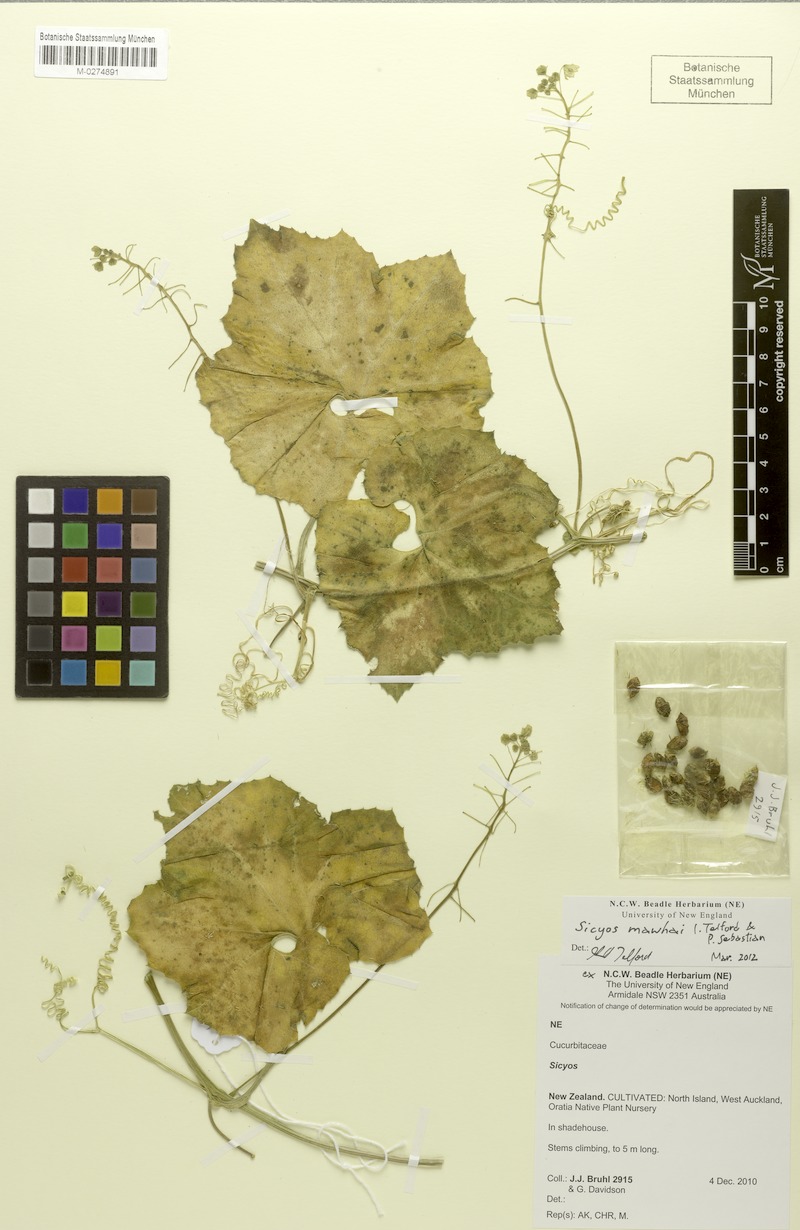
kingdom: Plantae
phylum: Tracheophyta
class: Magnoliopsida
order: Cucurbitales
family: Cucurbitaceae
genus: Sicyos
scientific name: Sicyos mawhai
